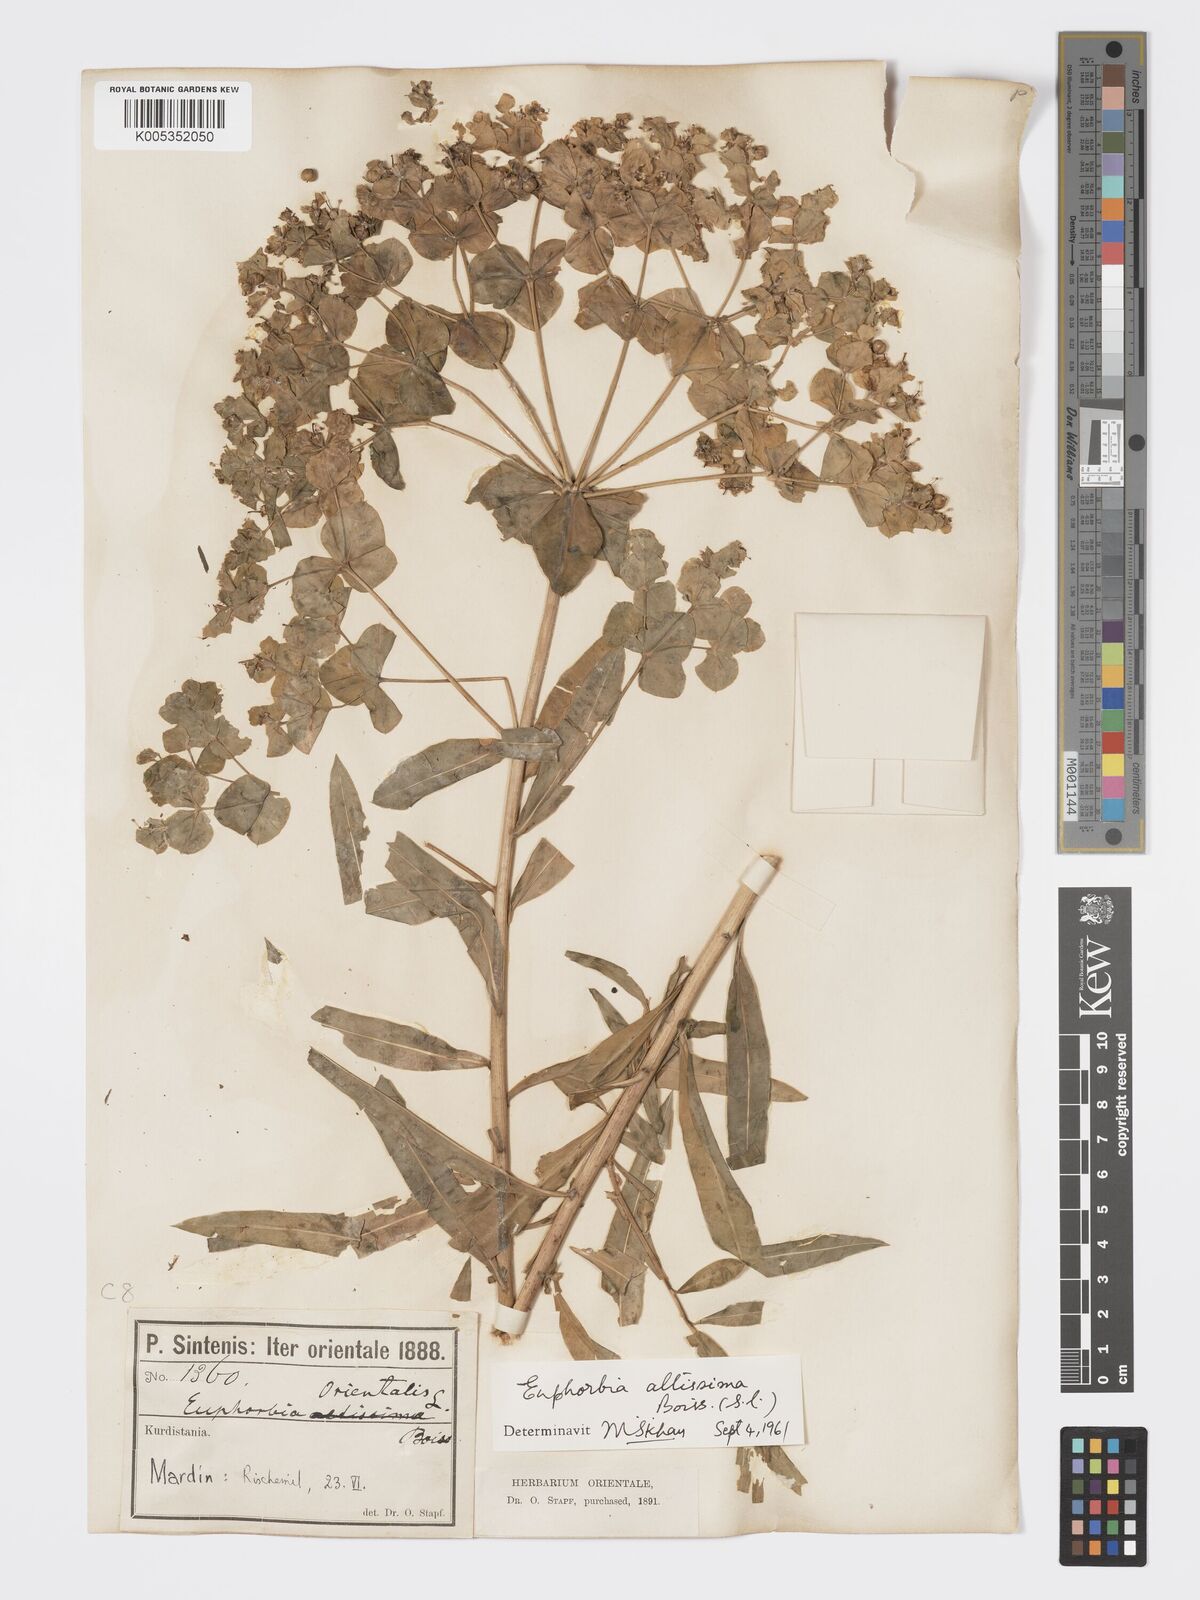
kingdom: Plantae
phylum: Tracheophyta
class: Magnoliopsida
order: Malpighiales
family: Euphorbiaceae
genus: Euphorbia
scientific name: Euphorbia altissima
